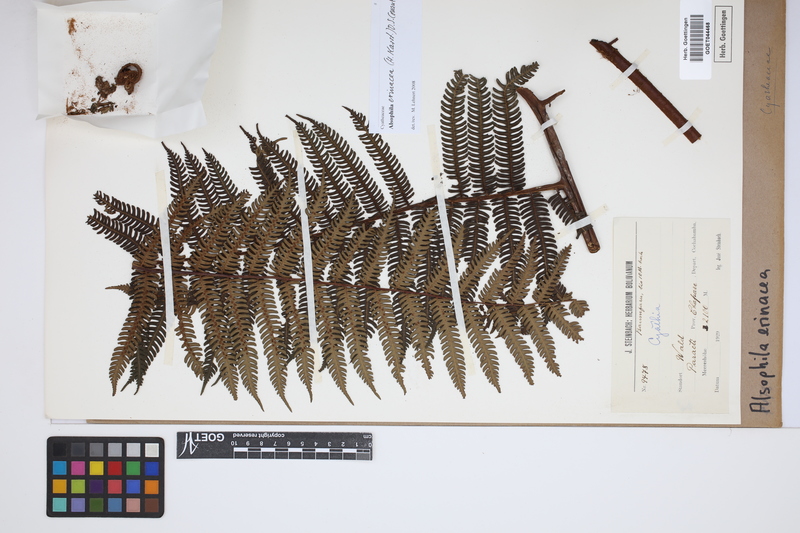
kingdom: Plantae
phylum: Tracheophyta
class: Polypodiopsida
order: Cyatheales
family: Cyatheaceae
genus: Alsophila
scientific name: Alsophila erinacea
